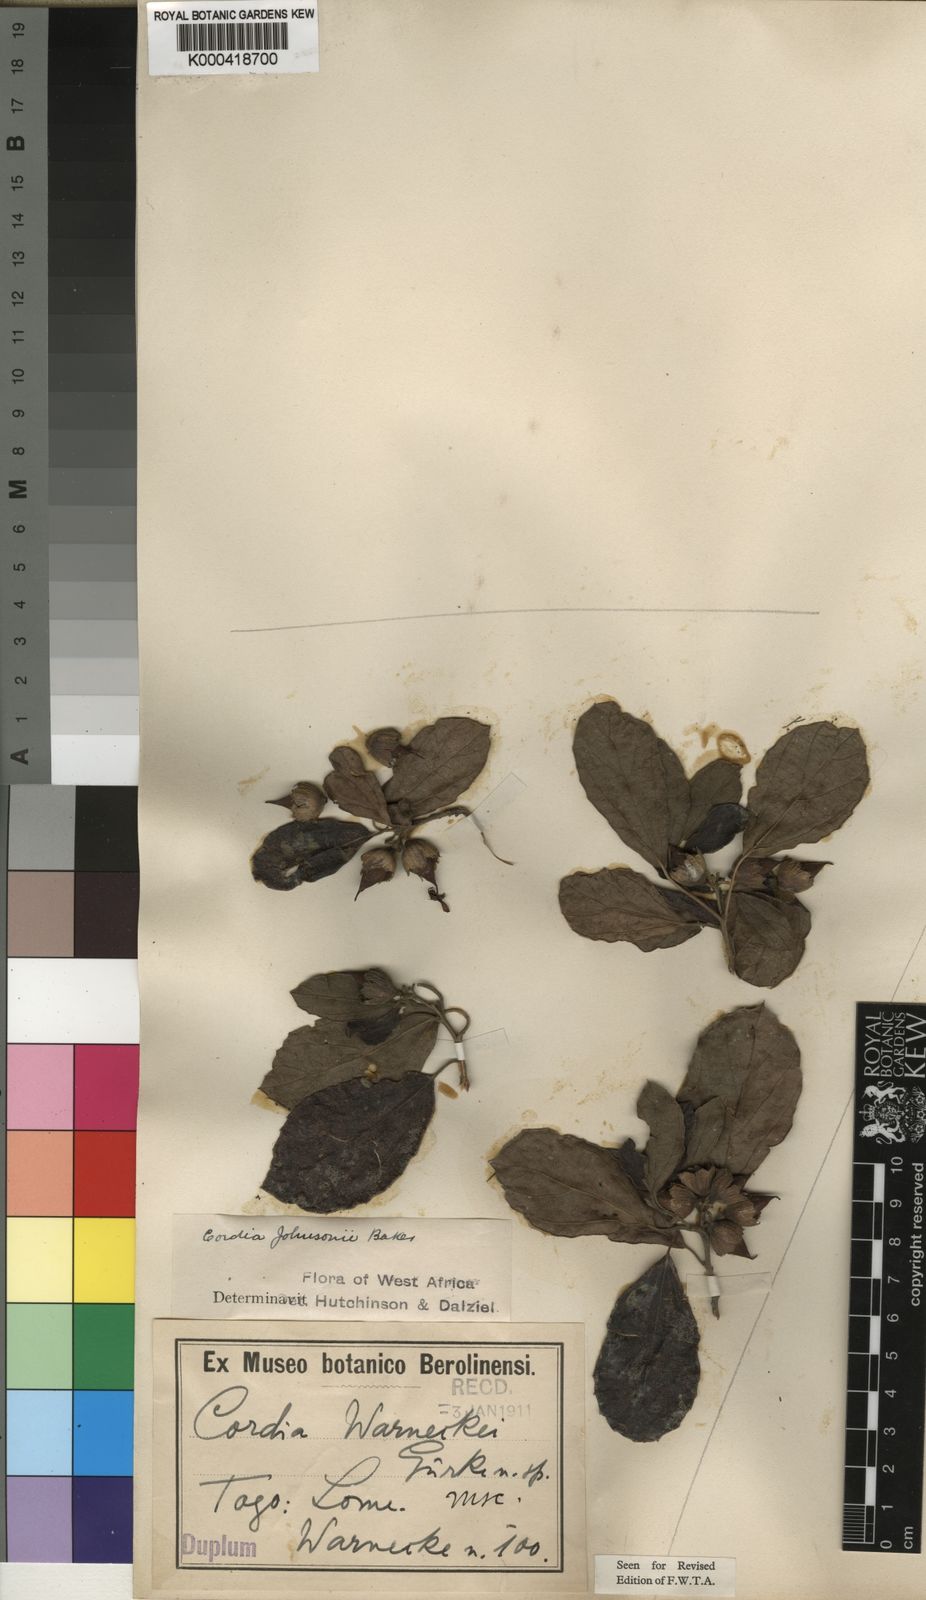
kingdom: Plantae
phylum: Tracheophyta
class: Magnoliopsida
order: Boraginales
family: Cordiaceae
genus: Cordia
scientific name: Cordia guineensis
